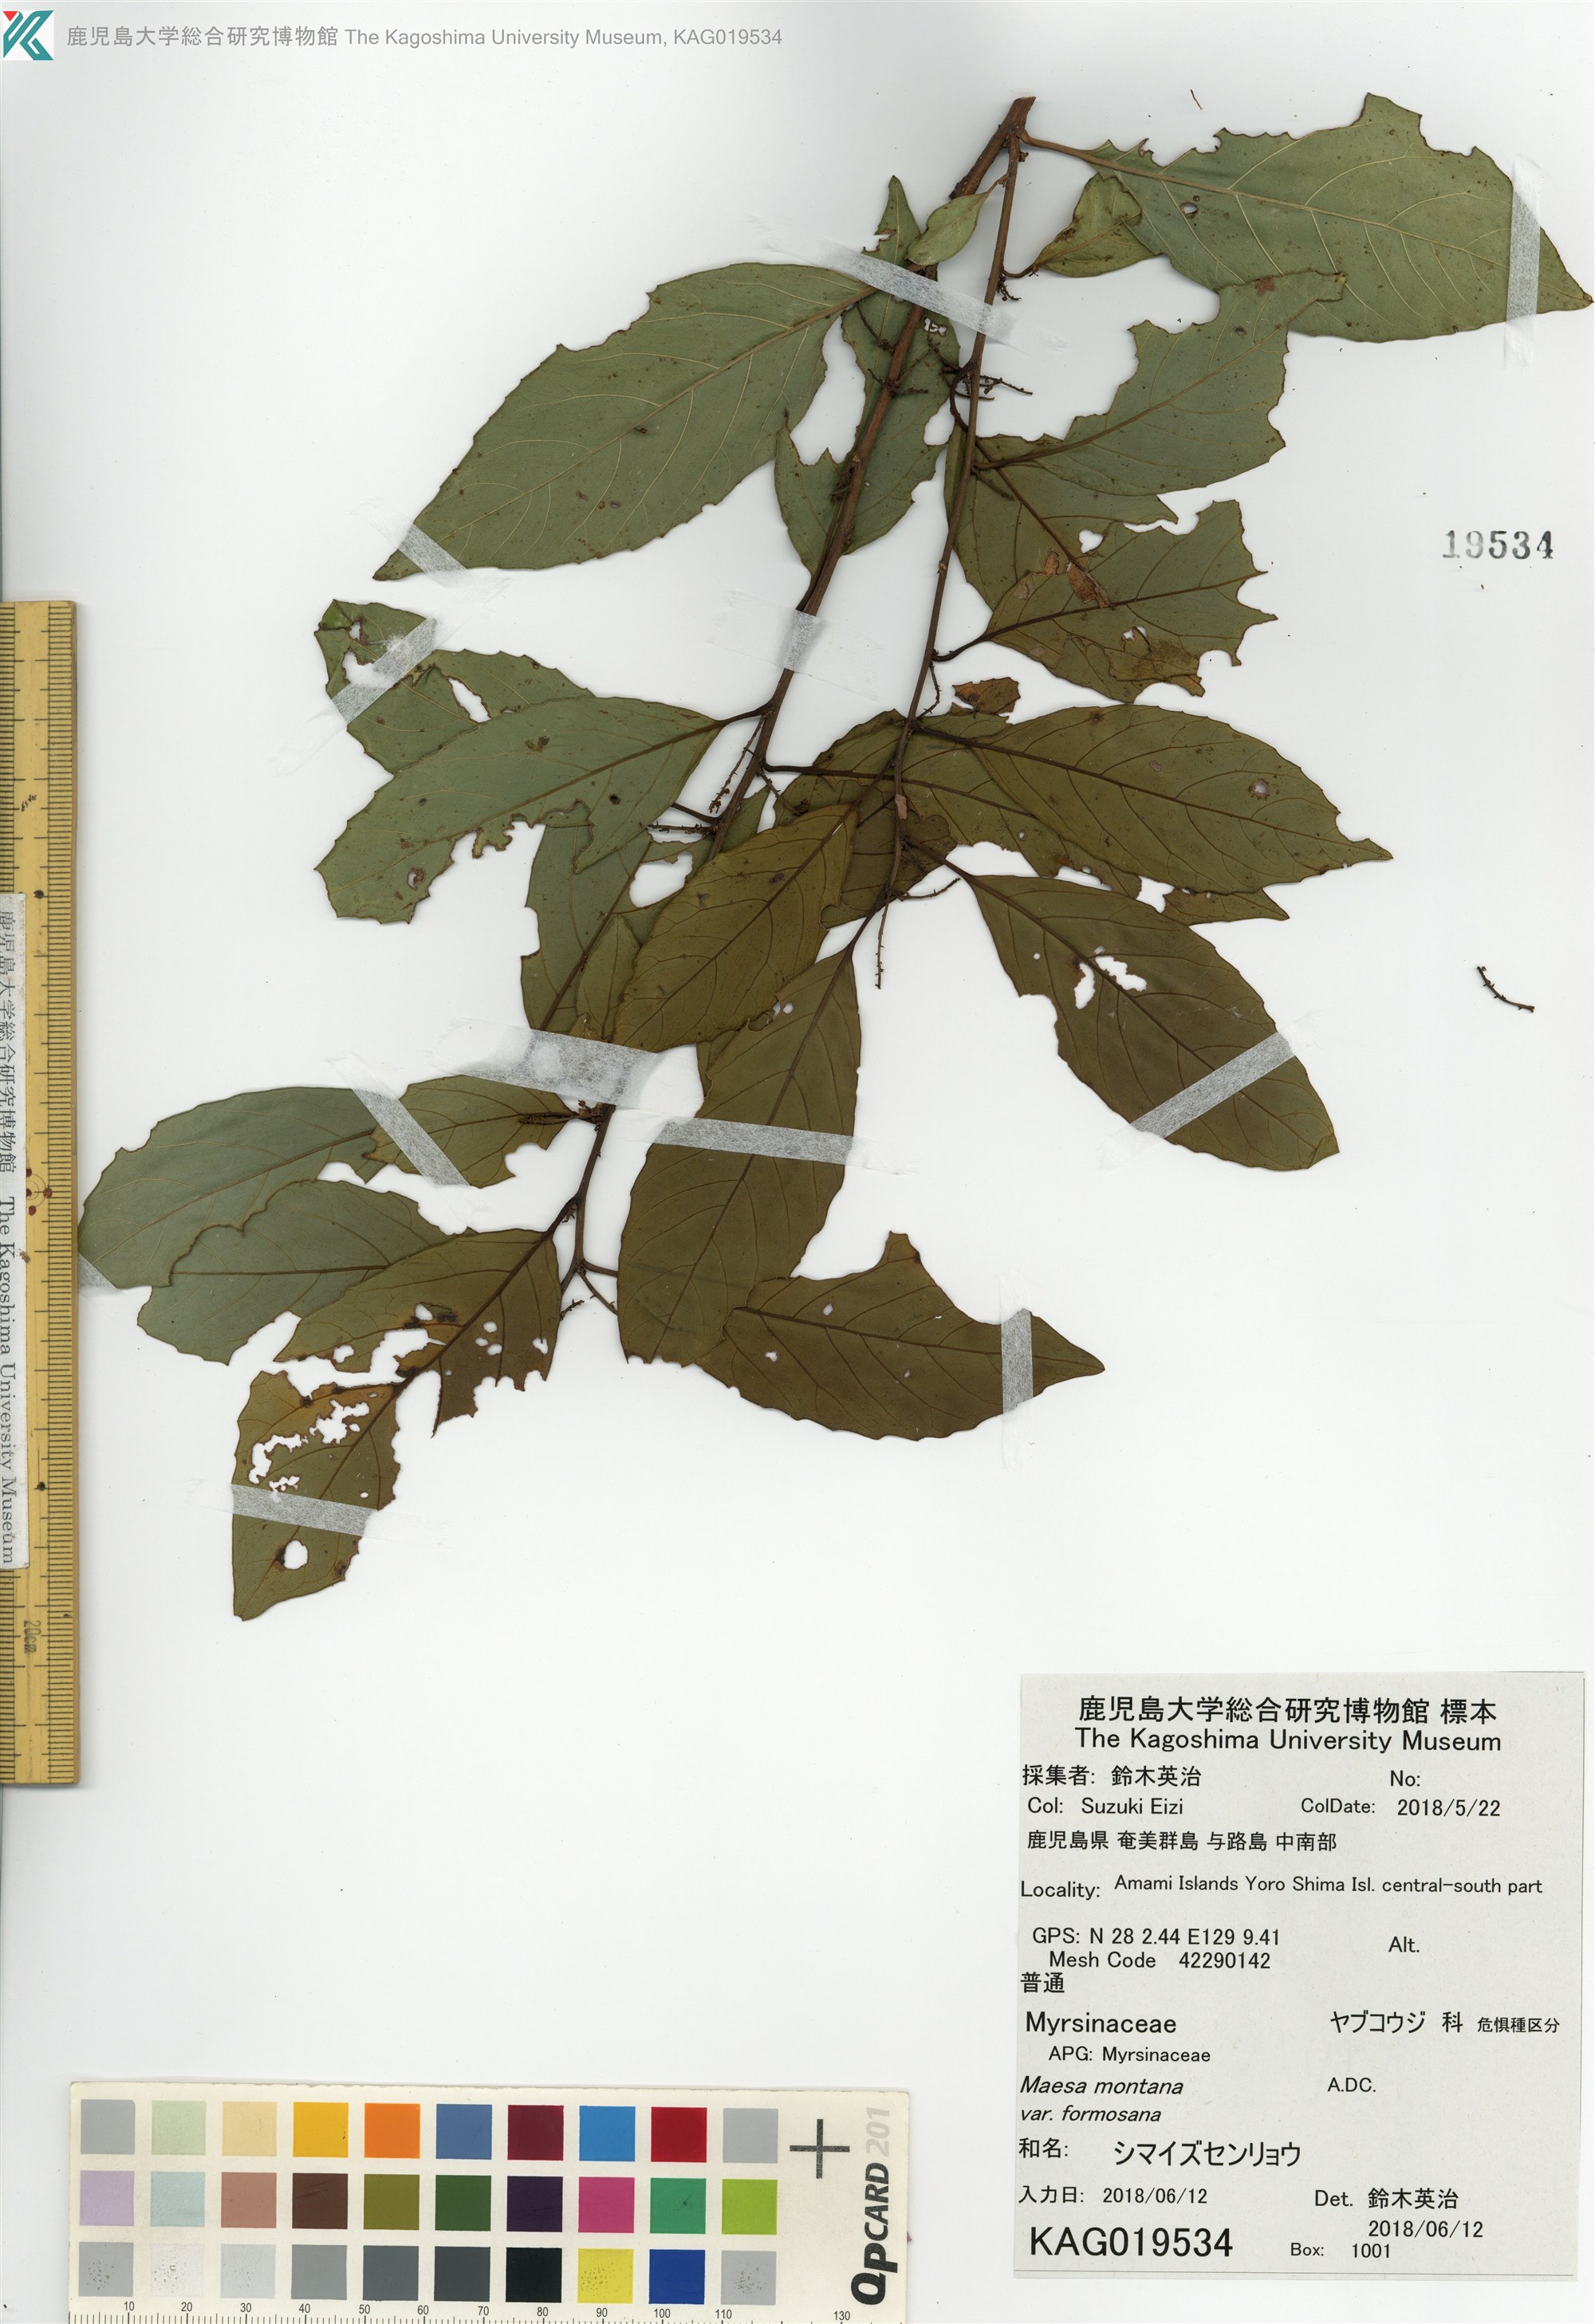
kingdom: Plantae
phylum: Tracheophyta
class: Magnoliopsida
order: Ericales
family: Primulaceae
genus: Maesa
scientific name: Maesa perlaria
